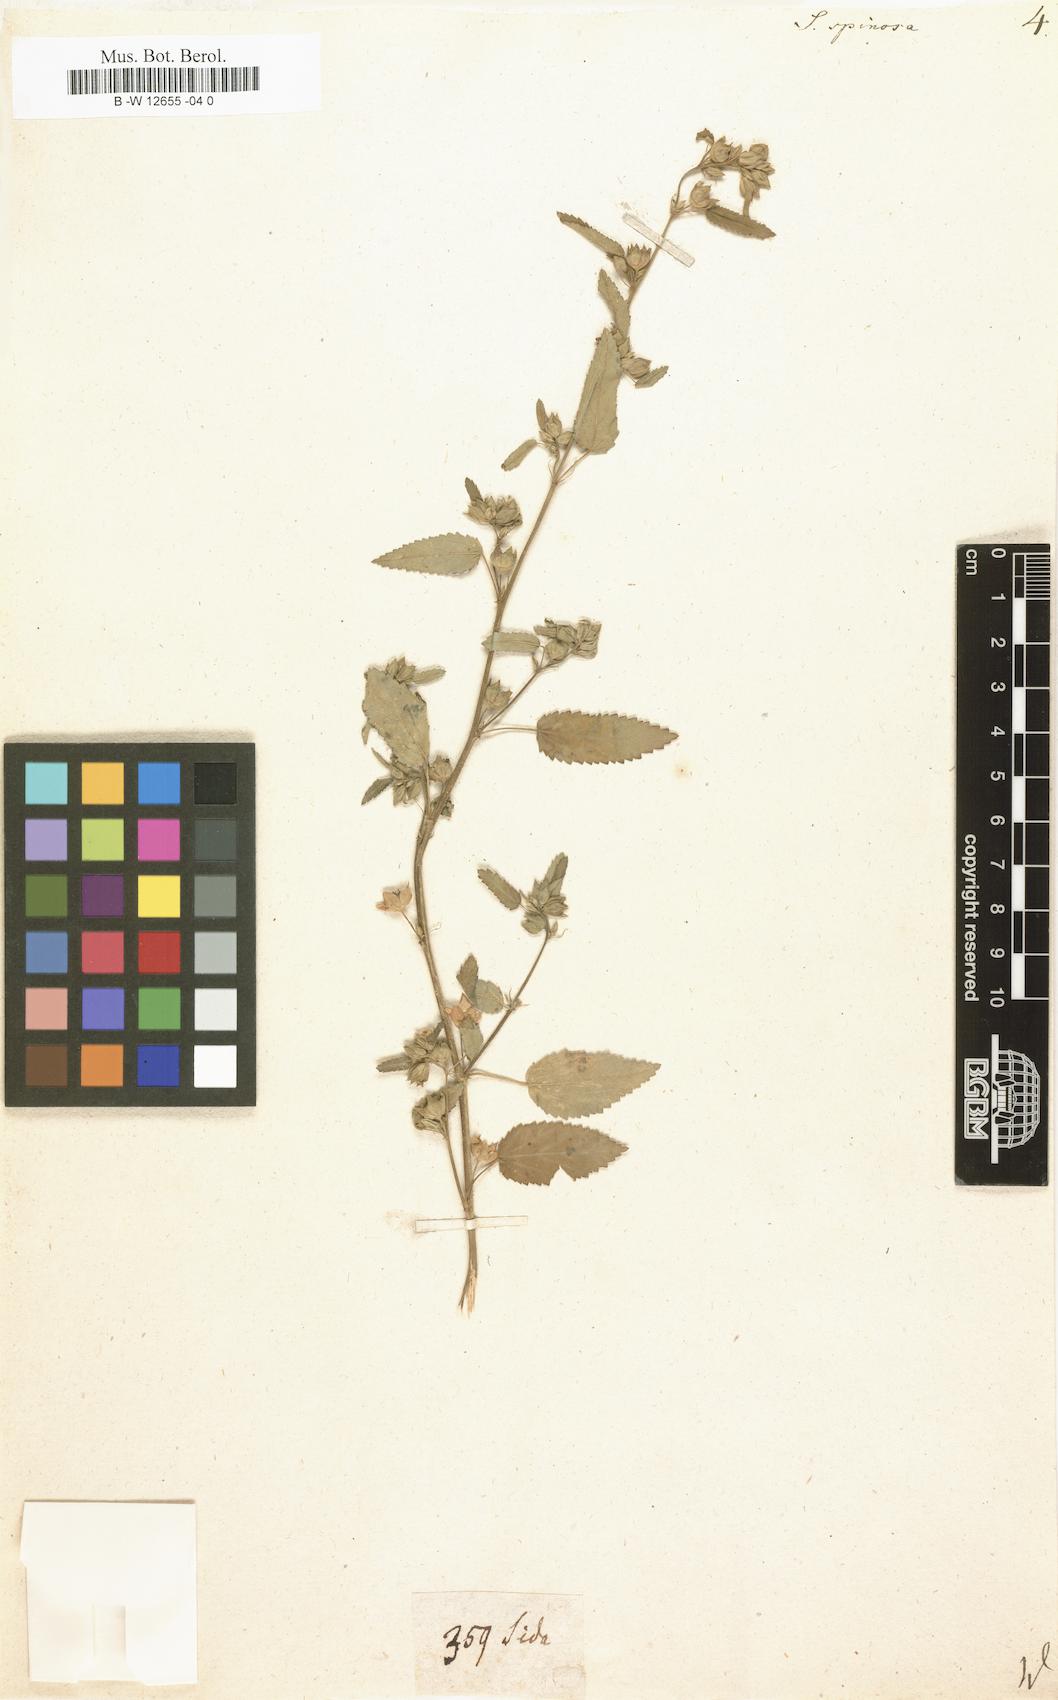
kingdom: Plantae
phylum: Tracheophyta
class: Magnoliopsida
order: Malvales
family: Malvaceae
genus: Sida
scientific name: Sida spinosa
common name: Prickly fanpetals
